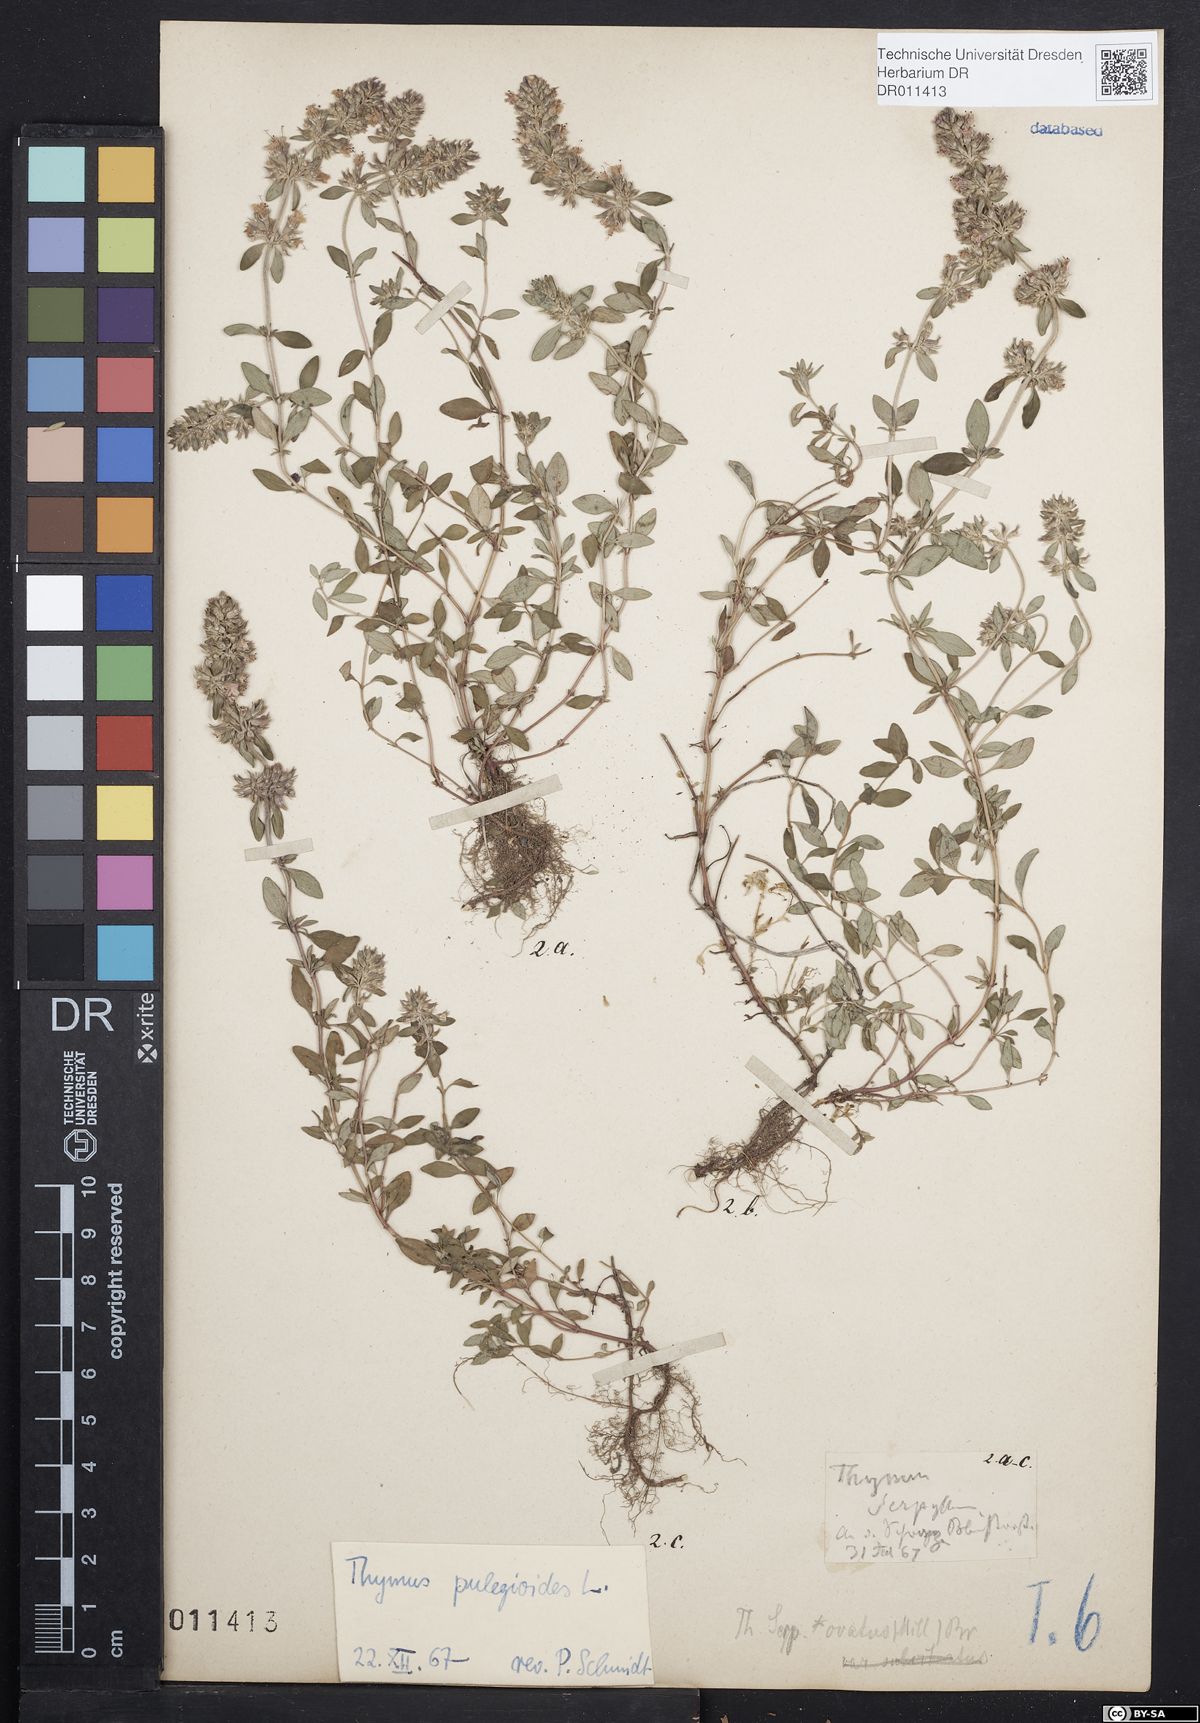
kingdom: Plantae
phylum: Tracheophyta
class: Magnoliopsida
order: Lamiales
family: Lamiaceae
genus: Thymus
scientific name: Thymus pulegioides
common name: Large thyme
